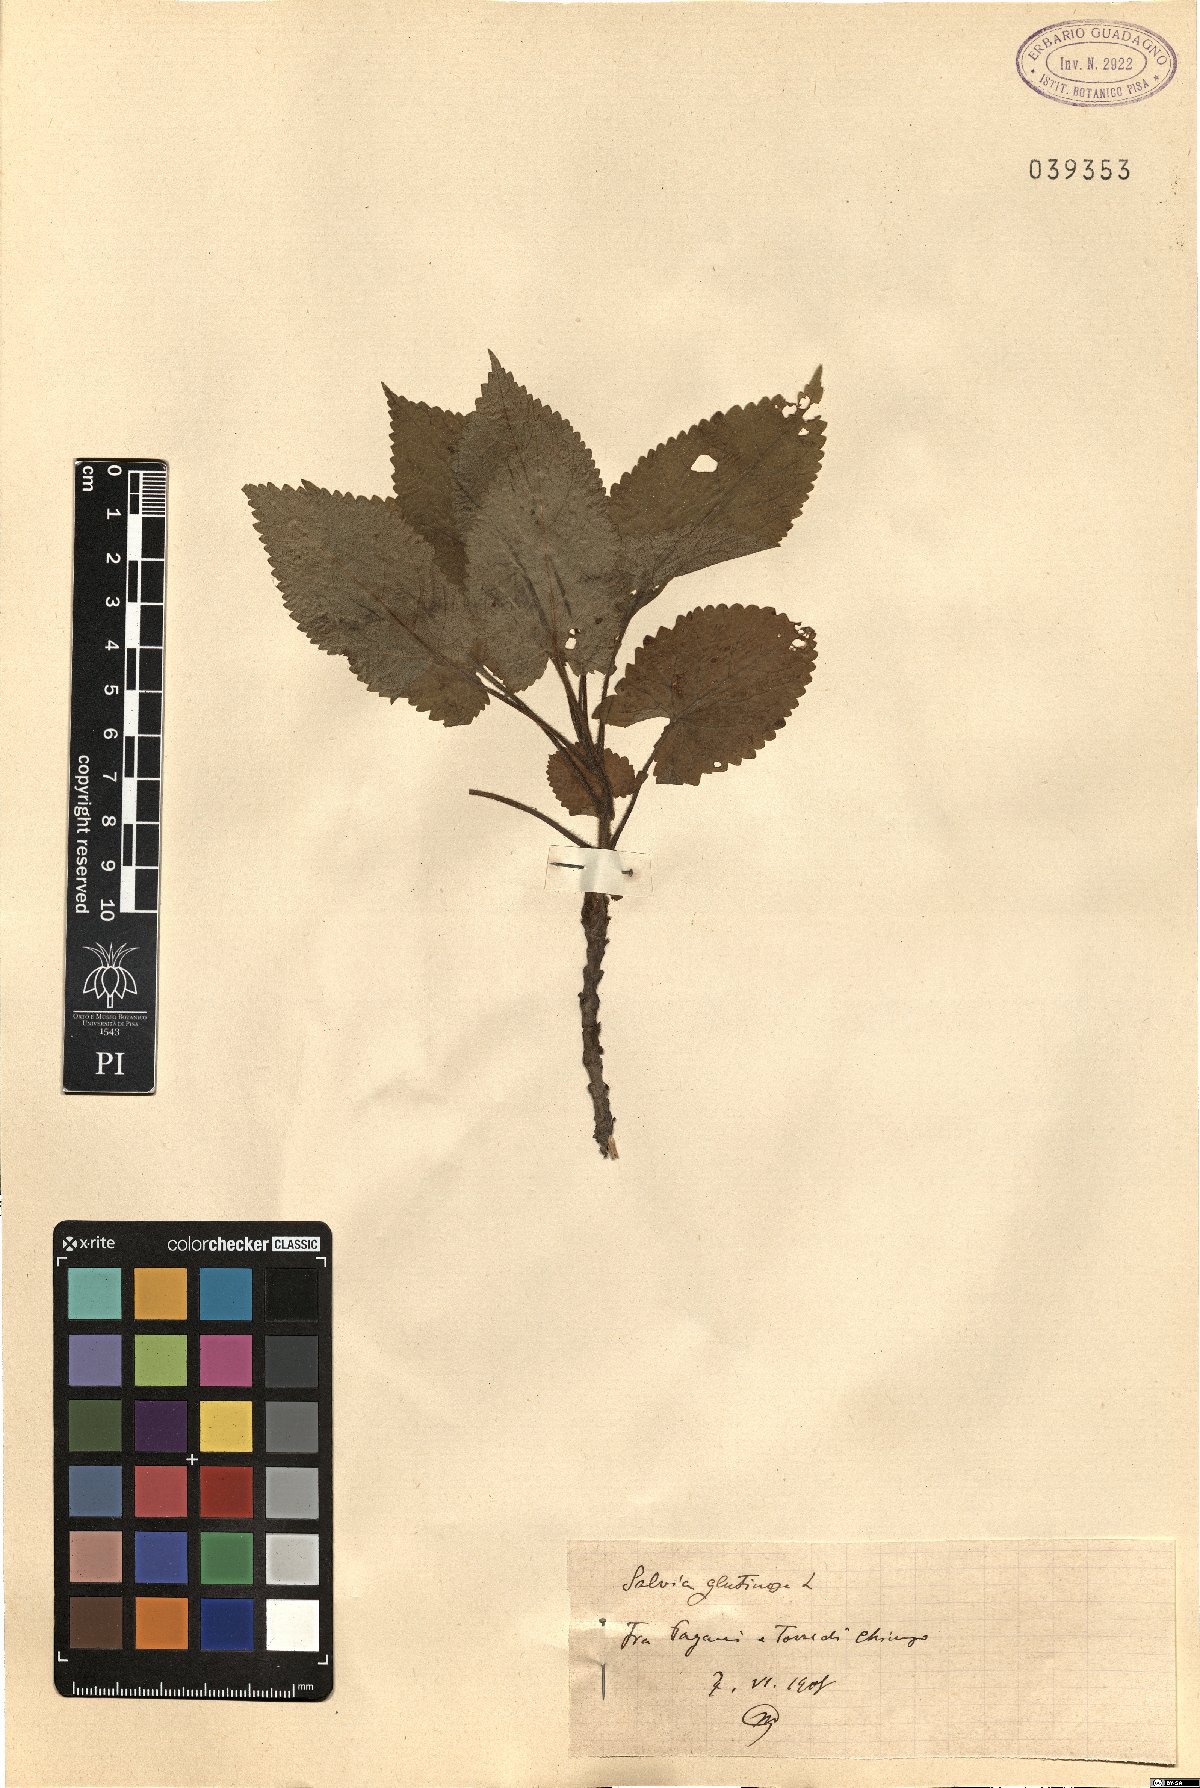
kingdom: Plantae
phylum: Tracheophyta
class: Magnoliopsida
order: Lamiales
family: Lamiaceae
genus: Salvia
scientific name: Salvia glutinosa
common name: Sticky clary
